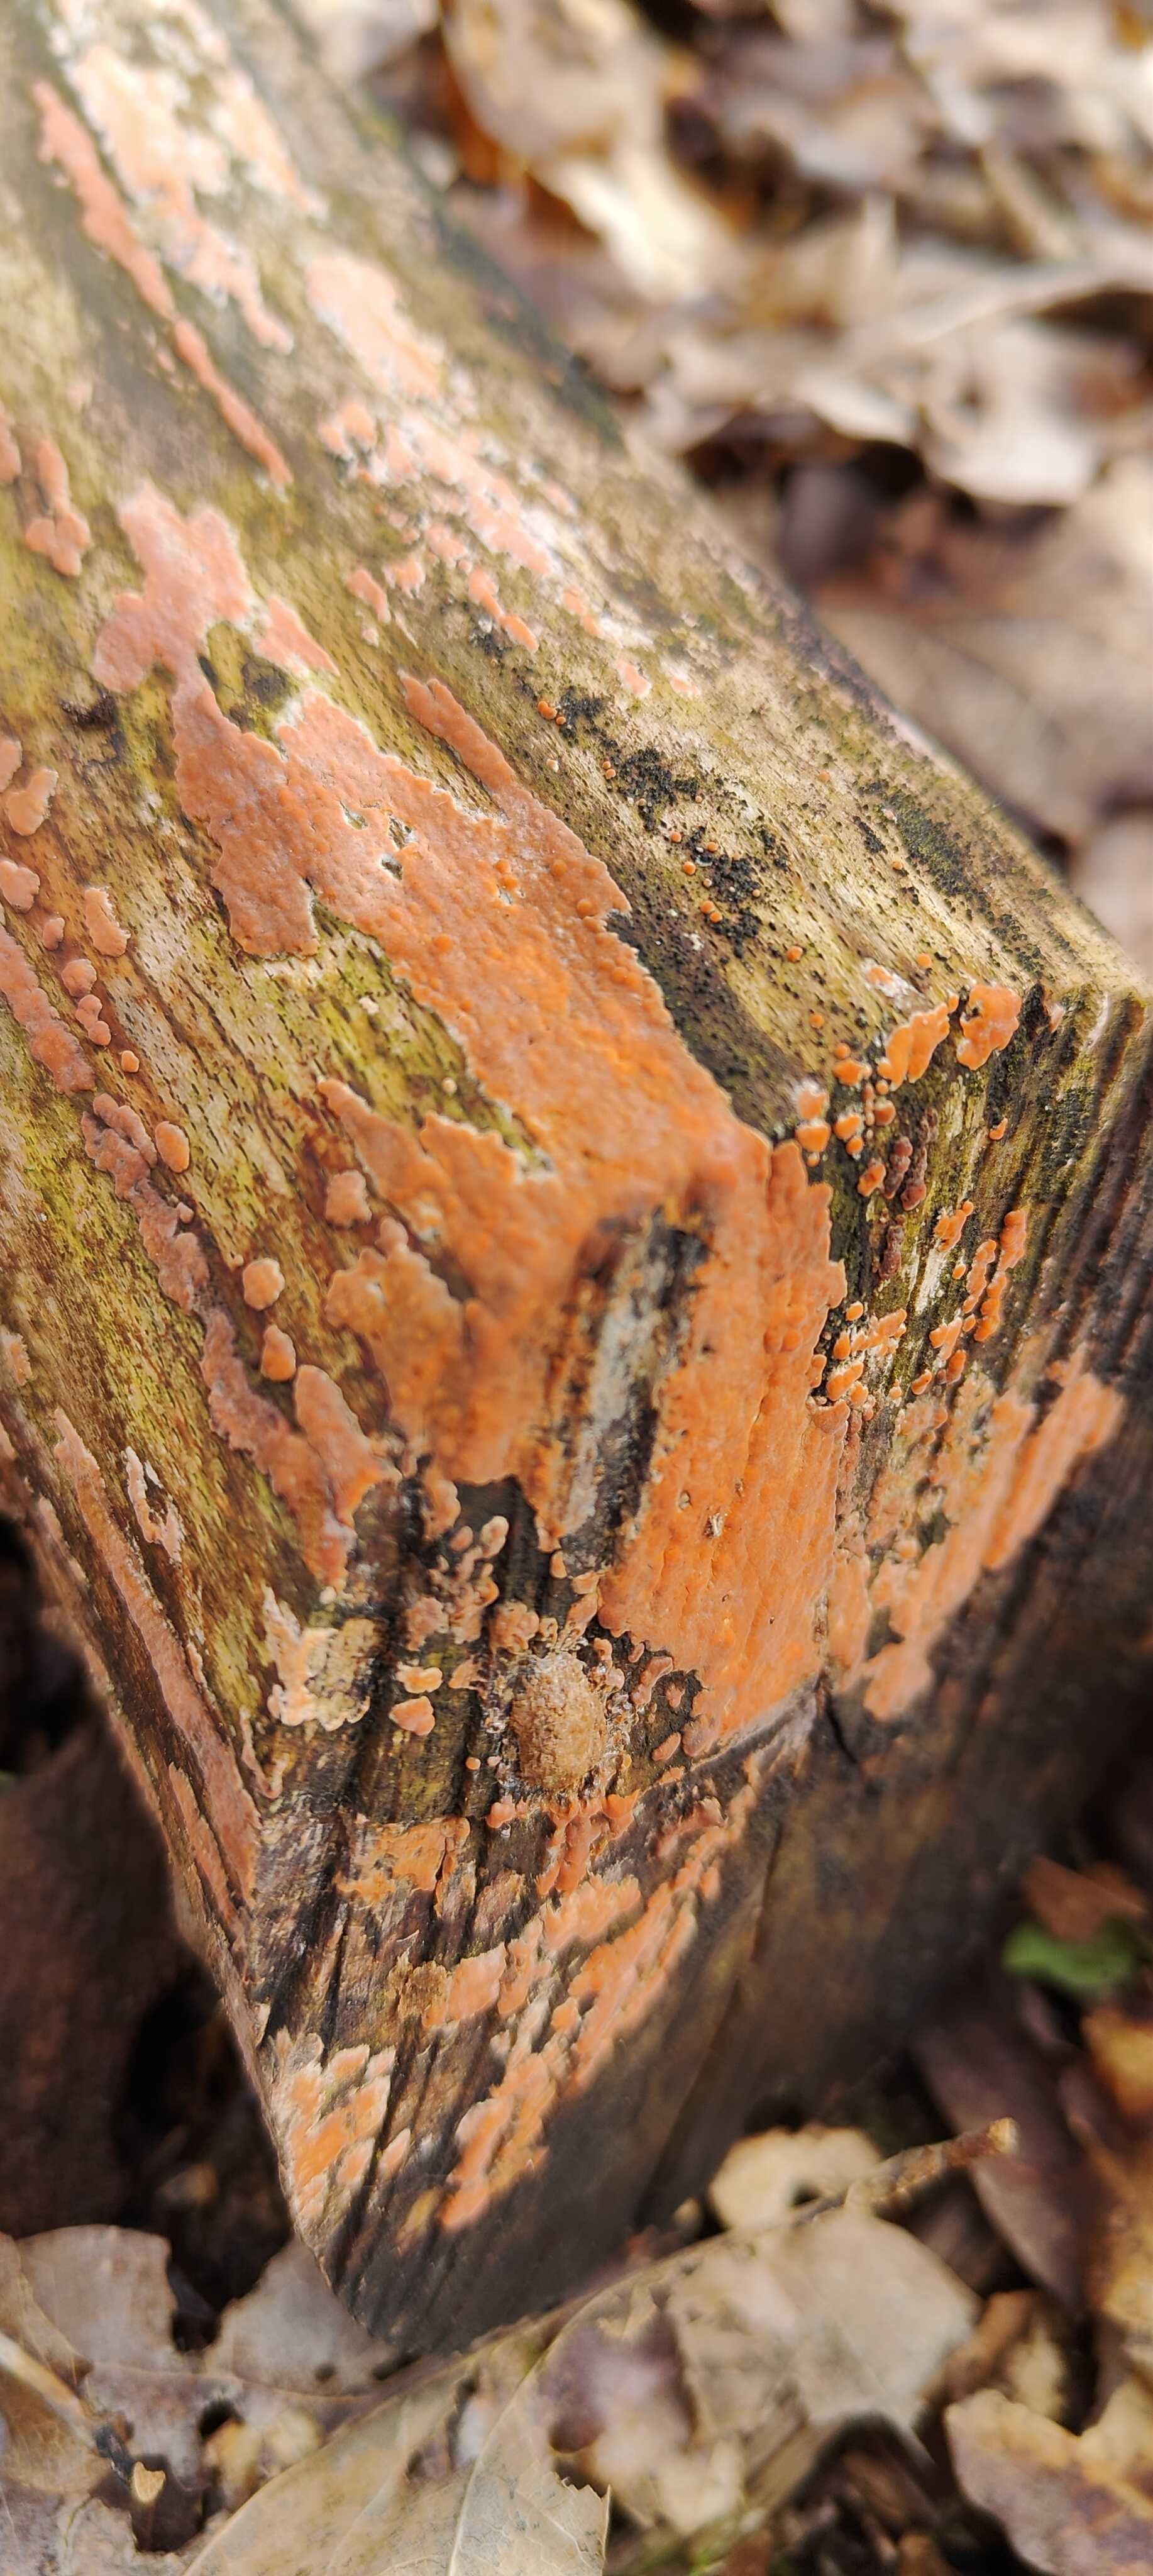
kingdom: Fungi
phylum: Basidiomycota
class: Agaricomycetes
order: Russulales
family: Peniophoraceae
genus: Peniophora
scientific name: Peniophora incarnata
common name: laksefarvet voksskind
